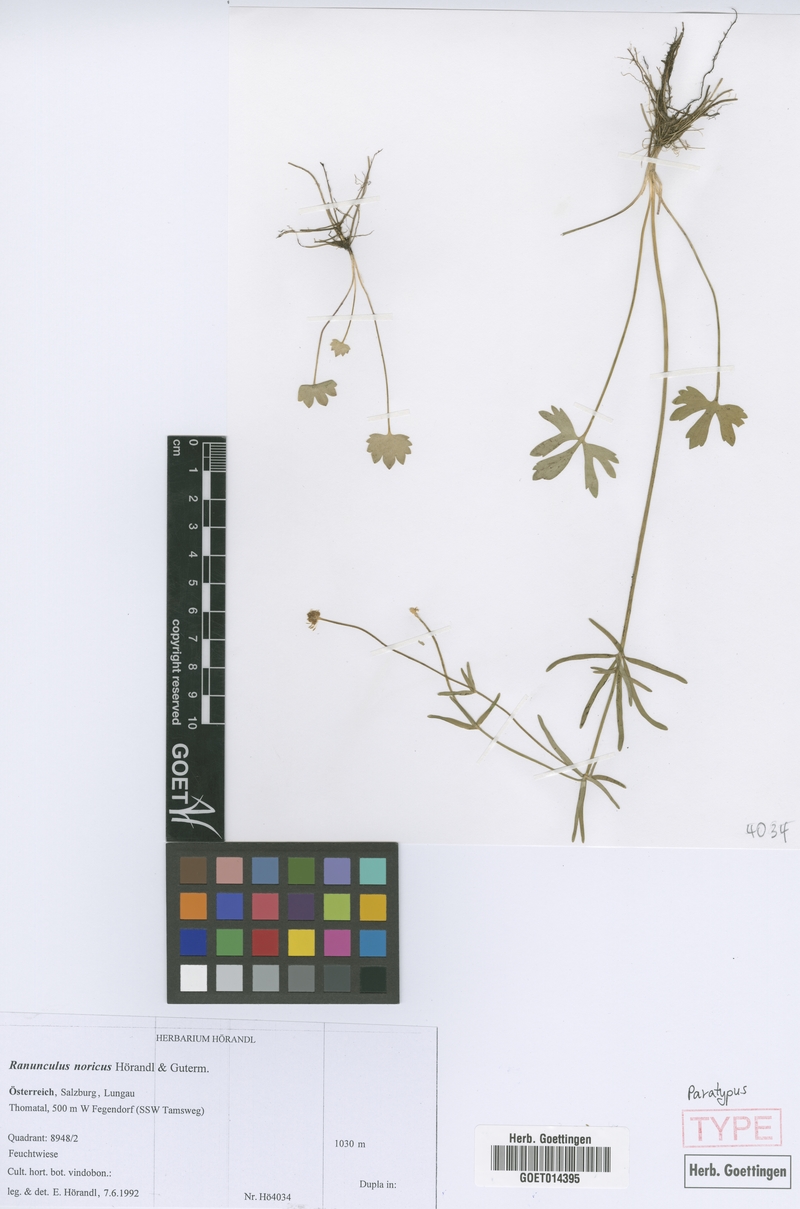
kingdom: Plantae
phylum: Tracheophyta
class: Magnoliopsida
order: Ranunculales
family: Ranunculaceae
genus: Ranunculus
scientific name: Ranunculus noricus
